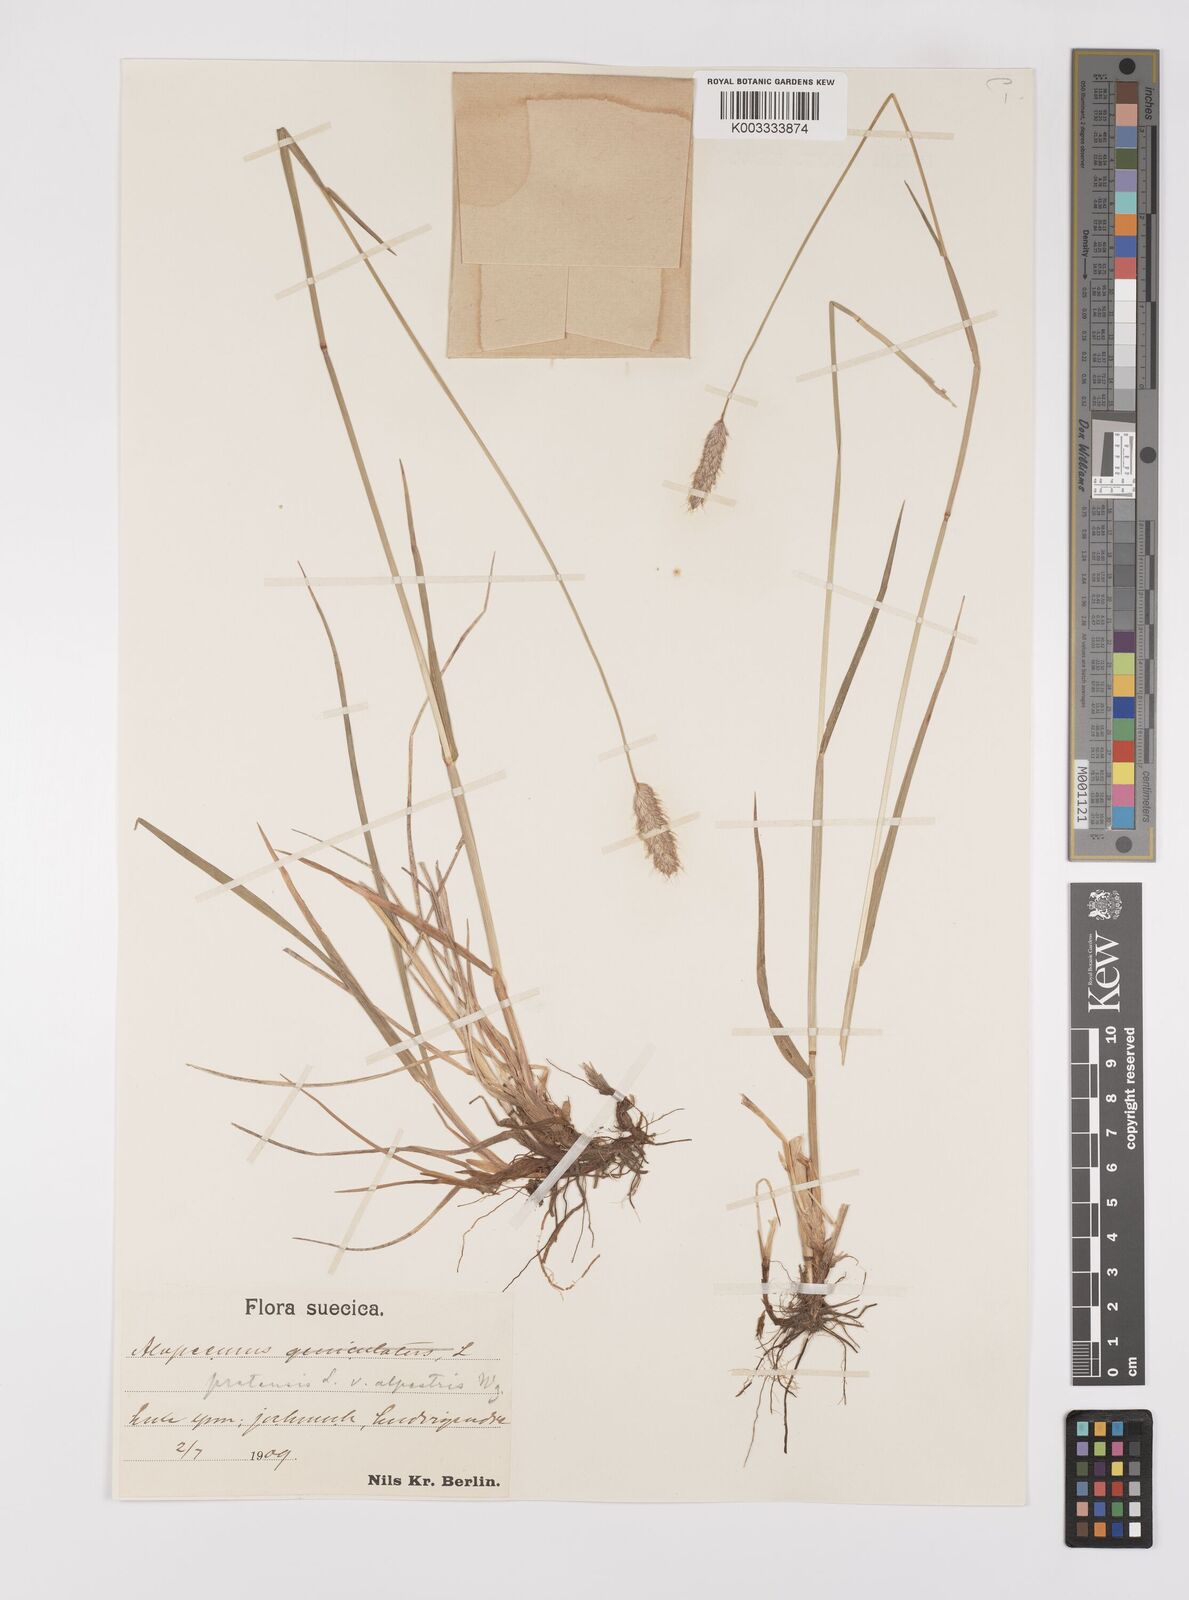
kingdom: Plantae
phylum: Tracheophyta
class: Liliopsida
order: Poales
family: Poaceae
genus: Alopecurus
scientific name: Alopecurus pratensis
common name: Meadow foxtail
